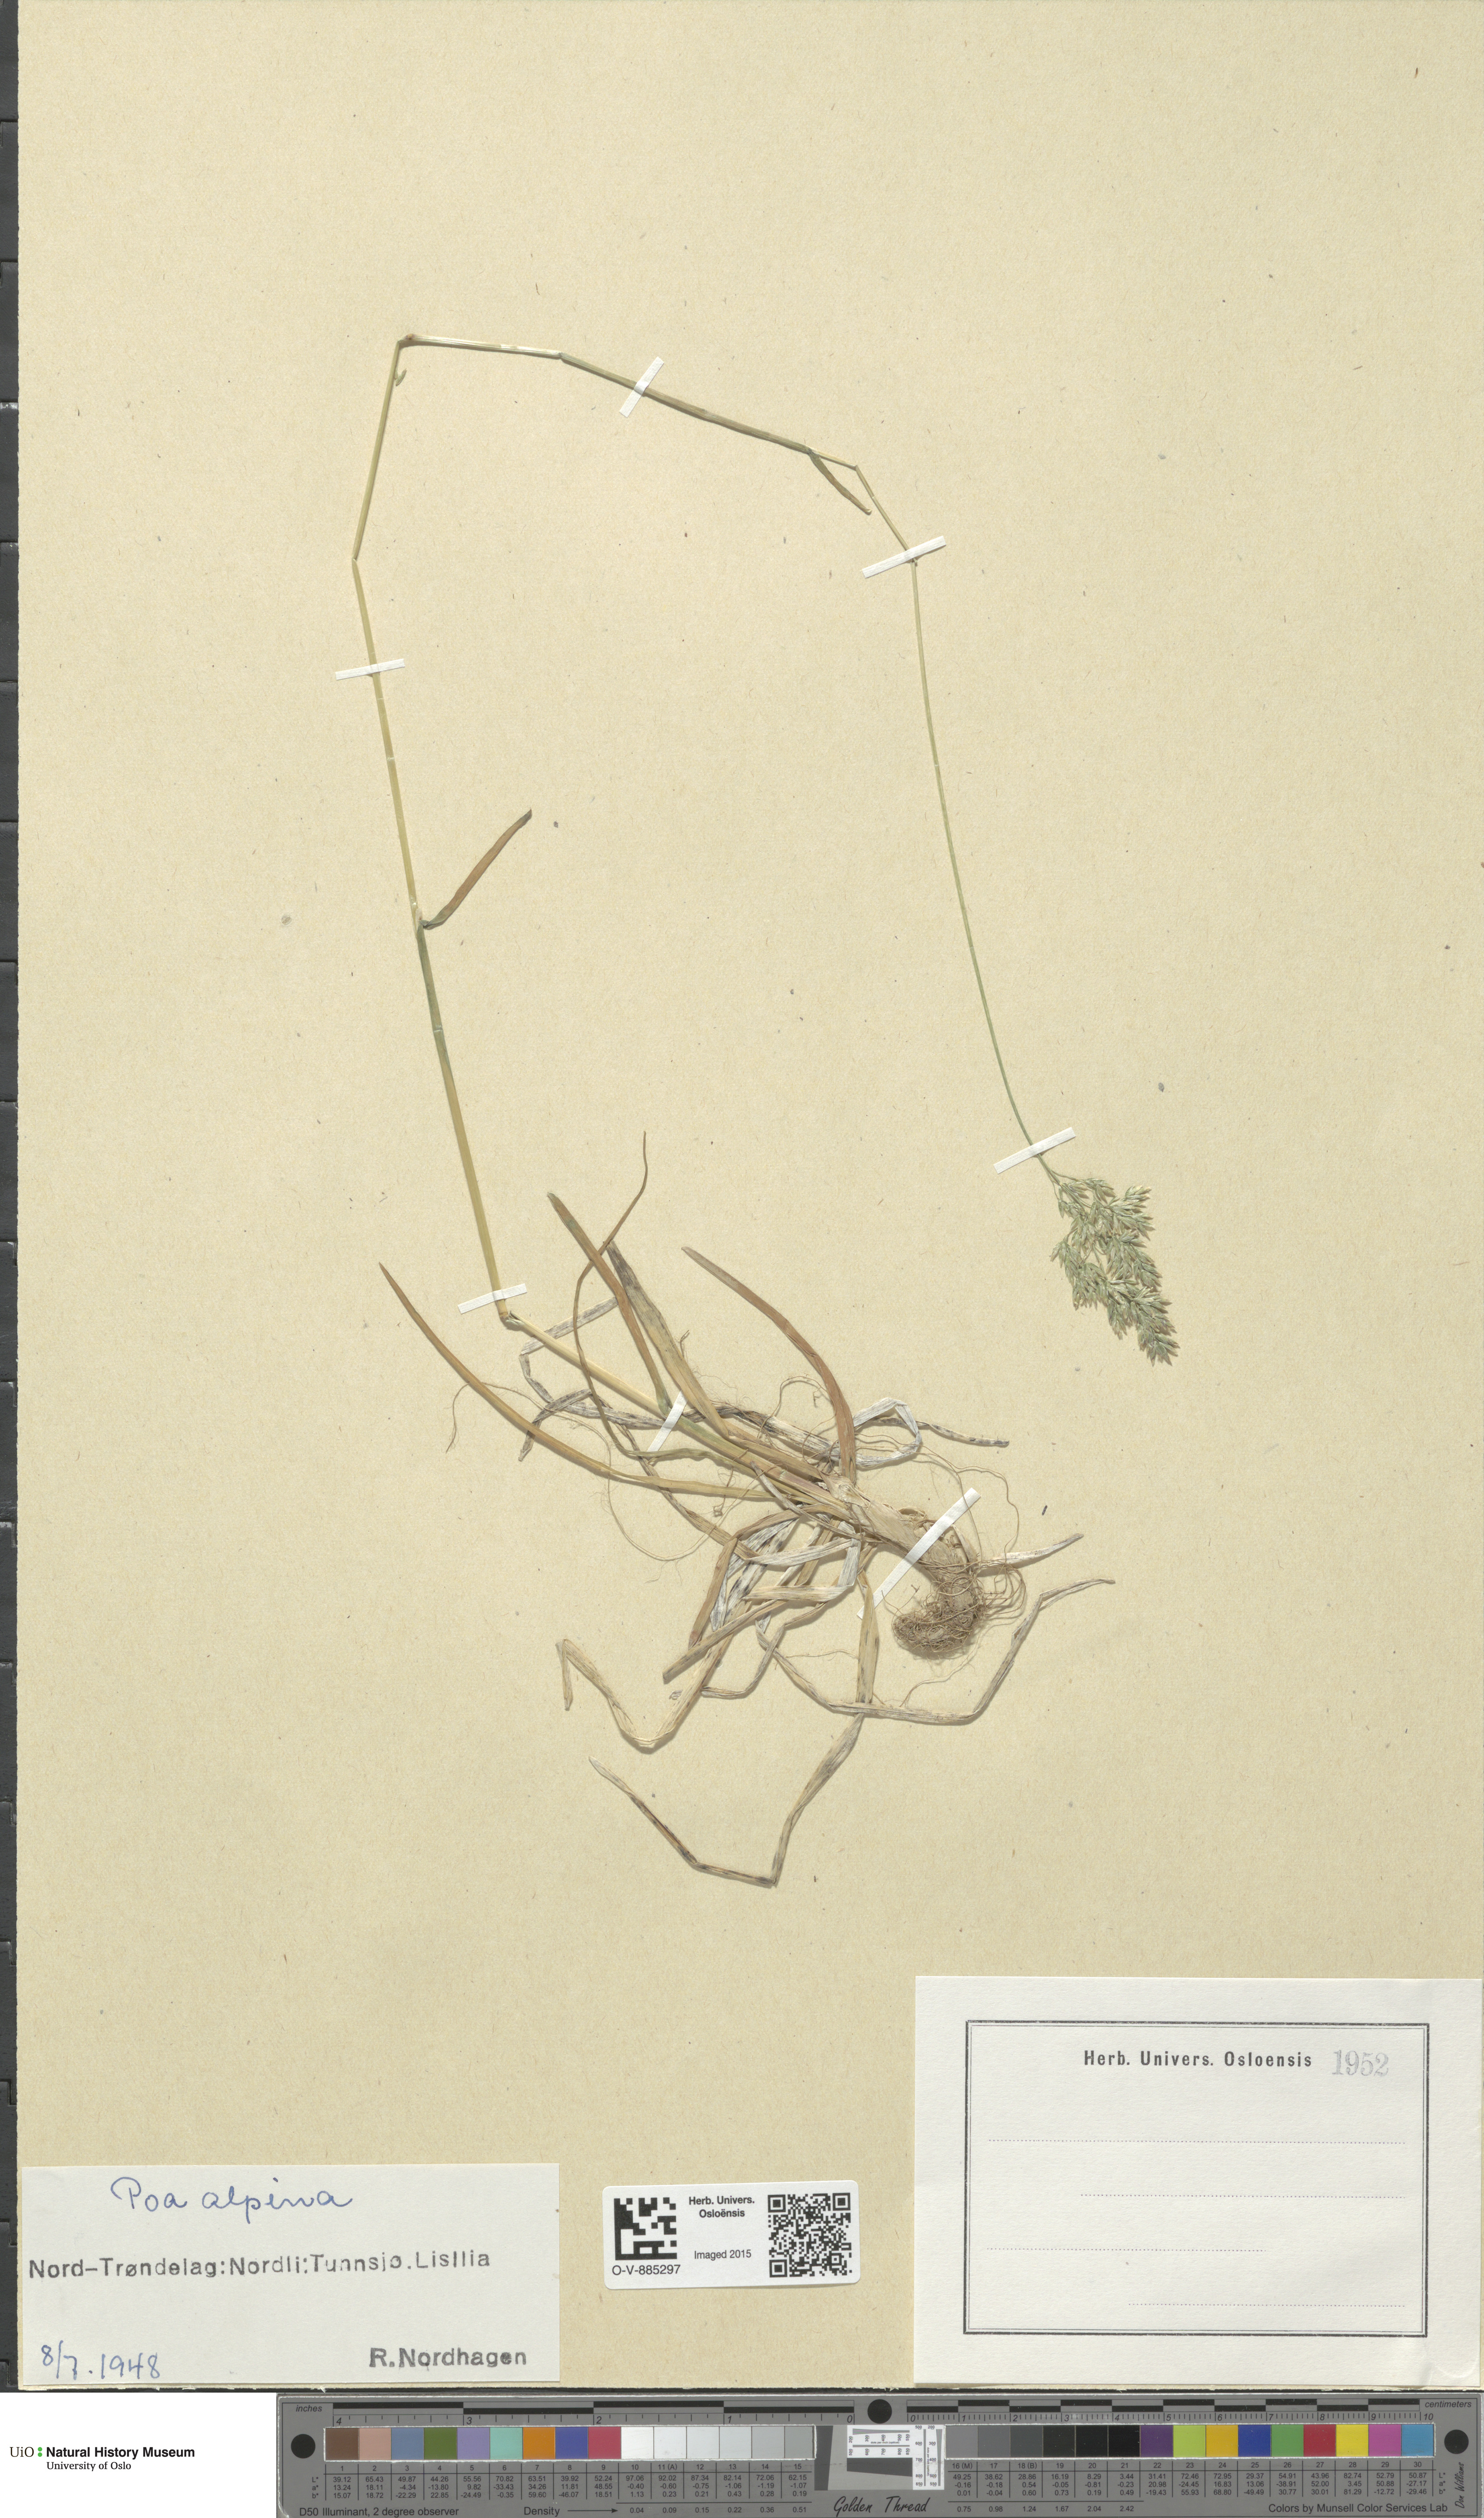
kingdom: Plantae
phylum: Tracheophyta
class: Liliopsida
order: Poales
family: Poaceae
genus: Poa
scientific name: Poa alpina
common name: Alpine bluegrass
